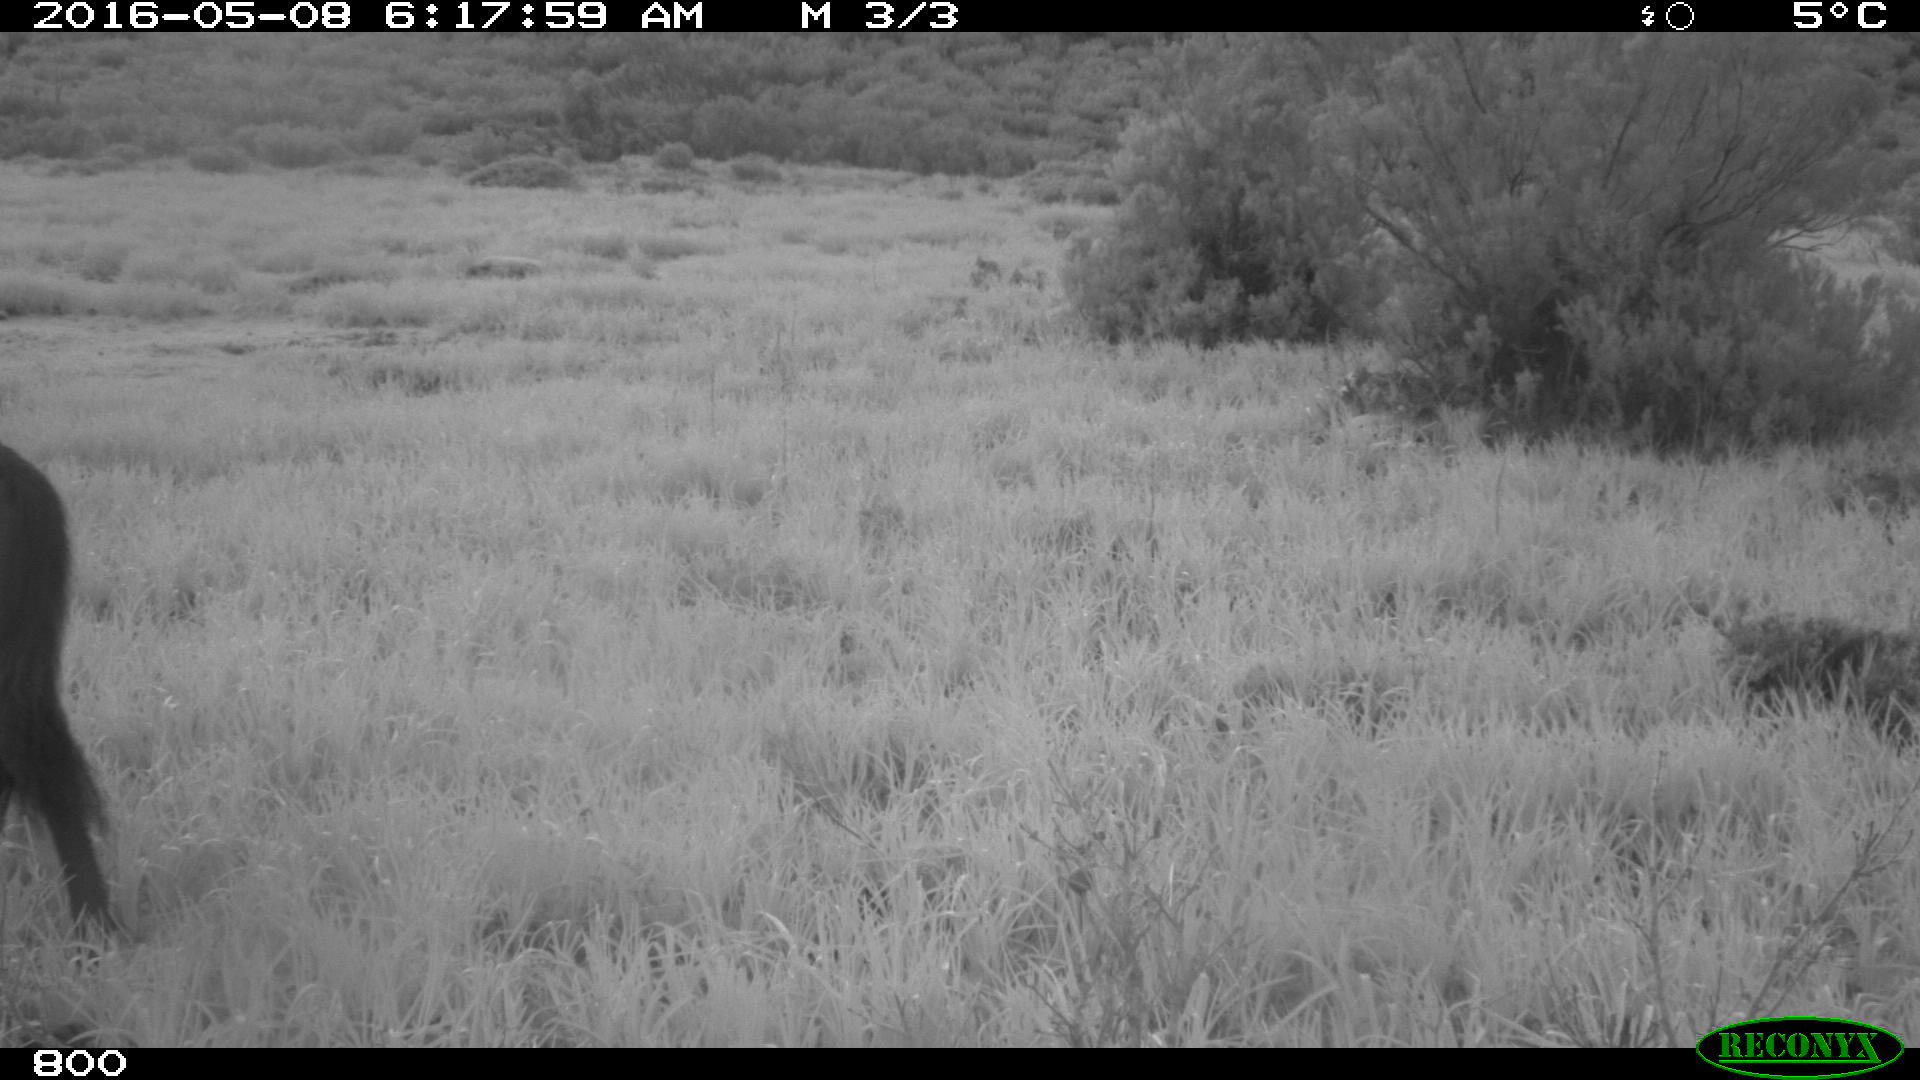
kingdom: Animalia
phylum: Chordata
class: Mammalia
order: Perissodactyla
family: Equidae
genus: Equus
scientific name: Equus caballus
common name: Horse
